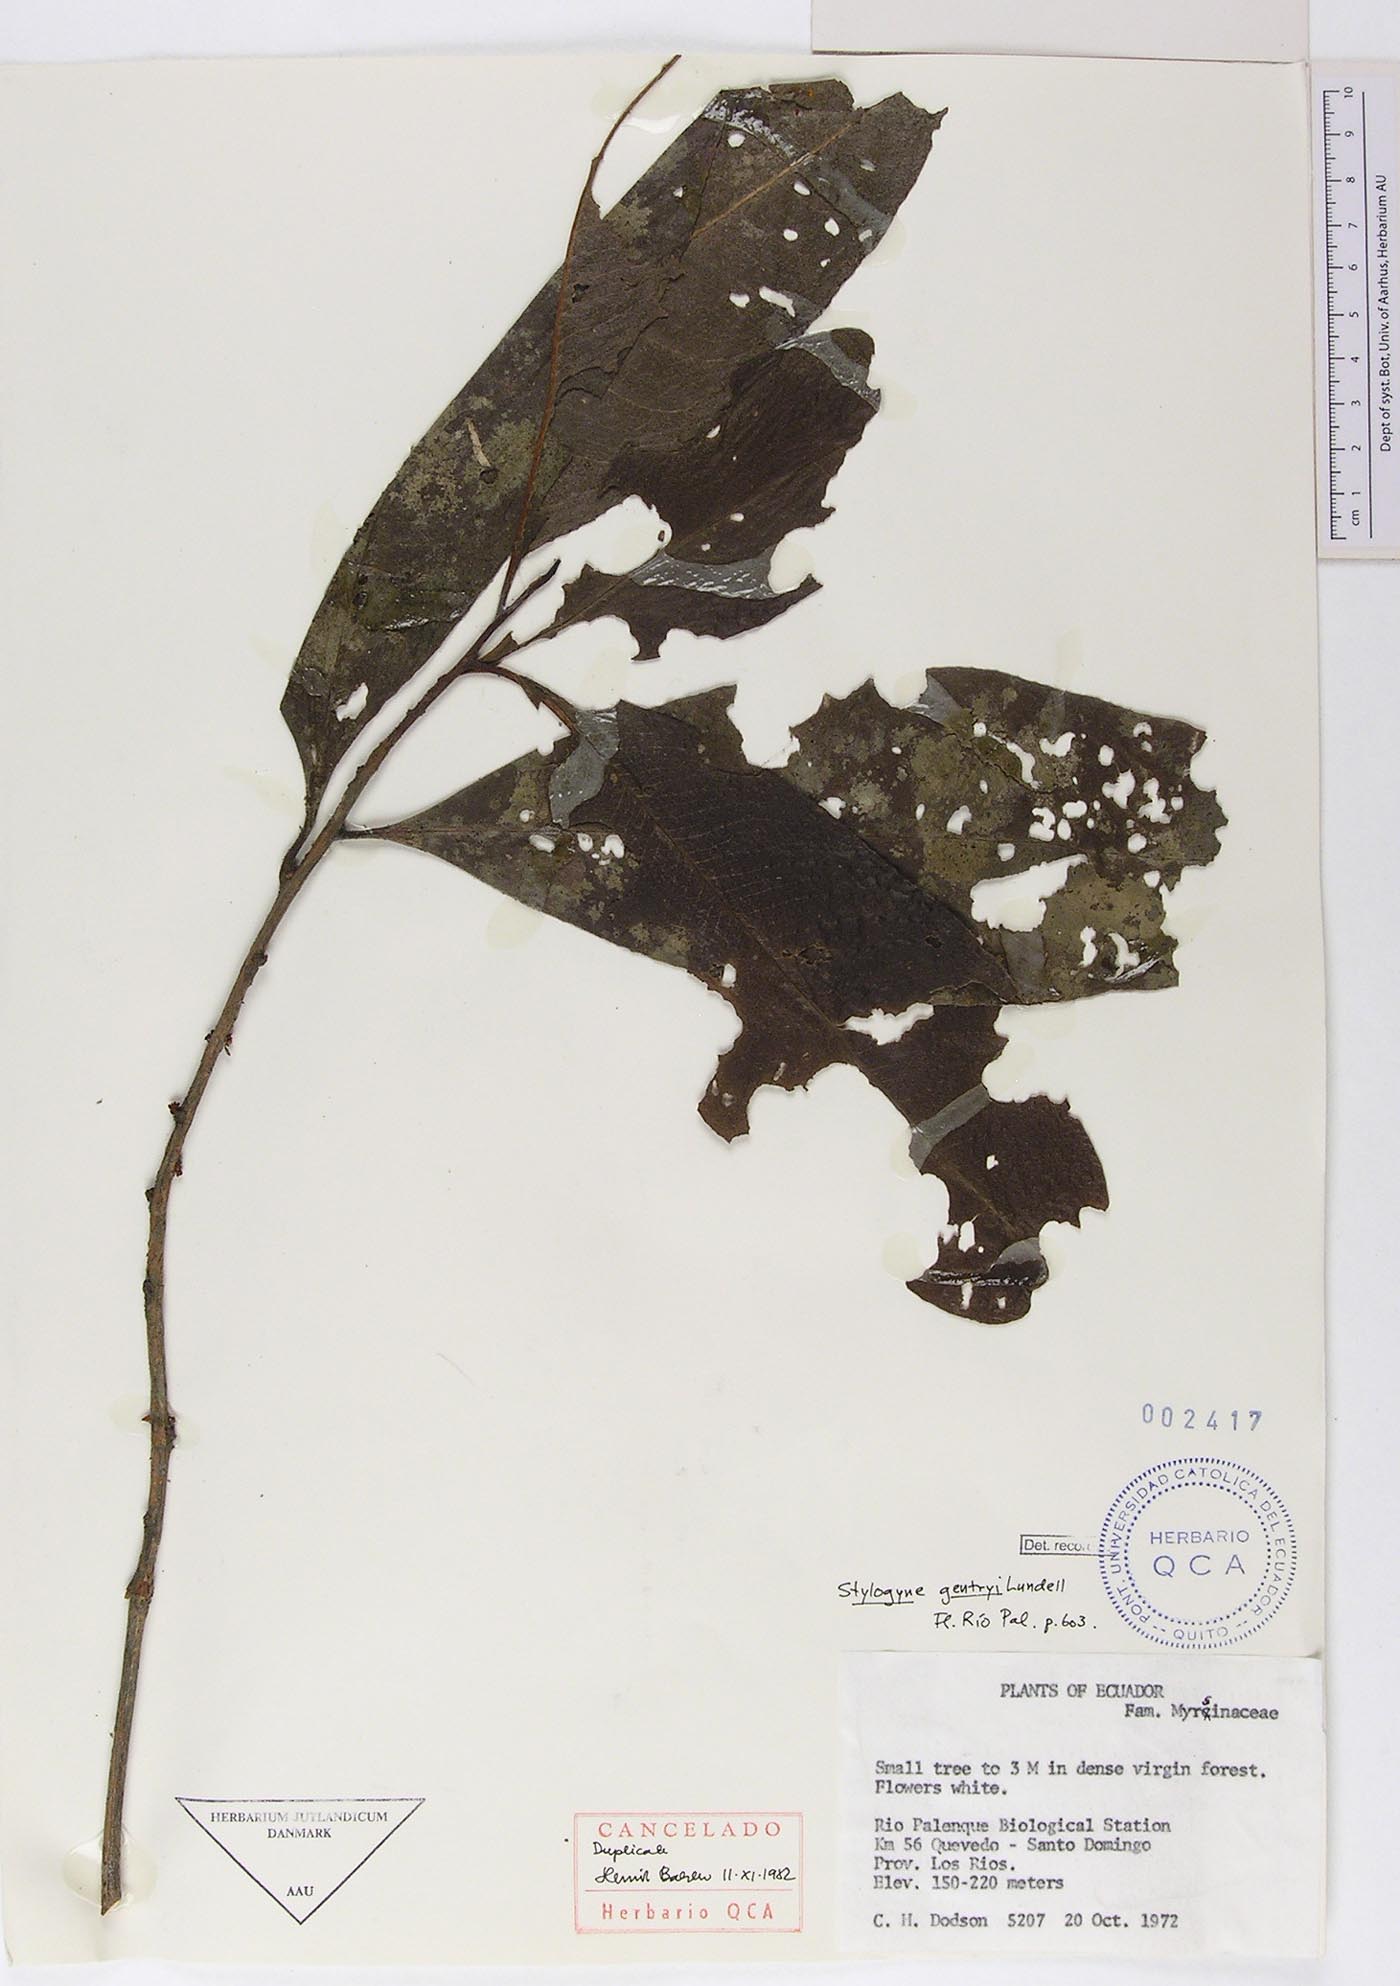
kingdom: Plantae
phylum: Tracheophyta
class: Magnoliopsida
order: Ericales
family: Primulaceae
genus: Stylogyne
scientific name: Stylogyne ardisioides
